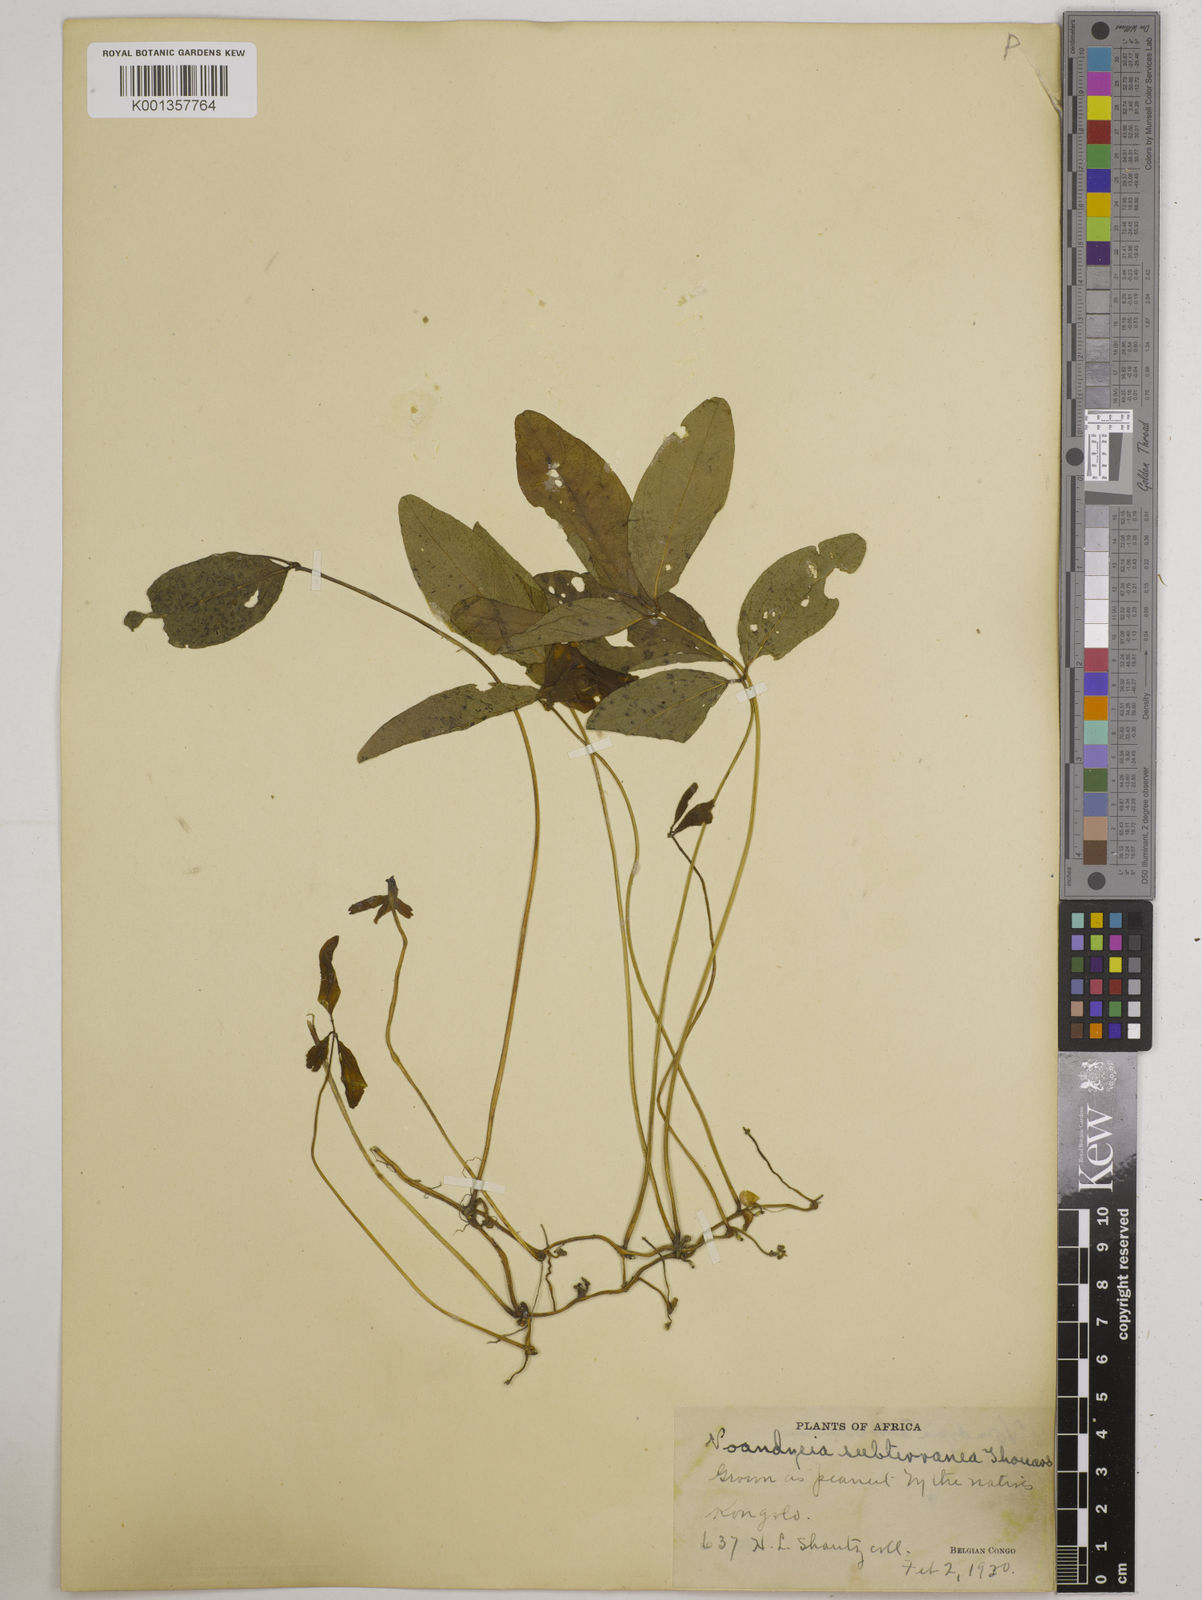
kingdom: Plantae
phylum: Tracheophyta
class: Magnoliopsida
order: Fabales
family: Fabaceae
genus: Vigna
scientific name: Vigna subterranea
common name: Bambara groundnut
